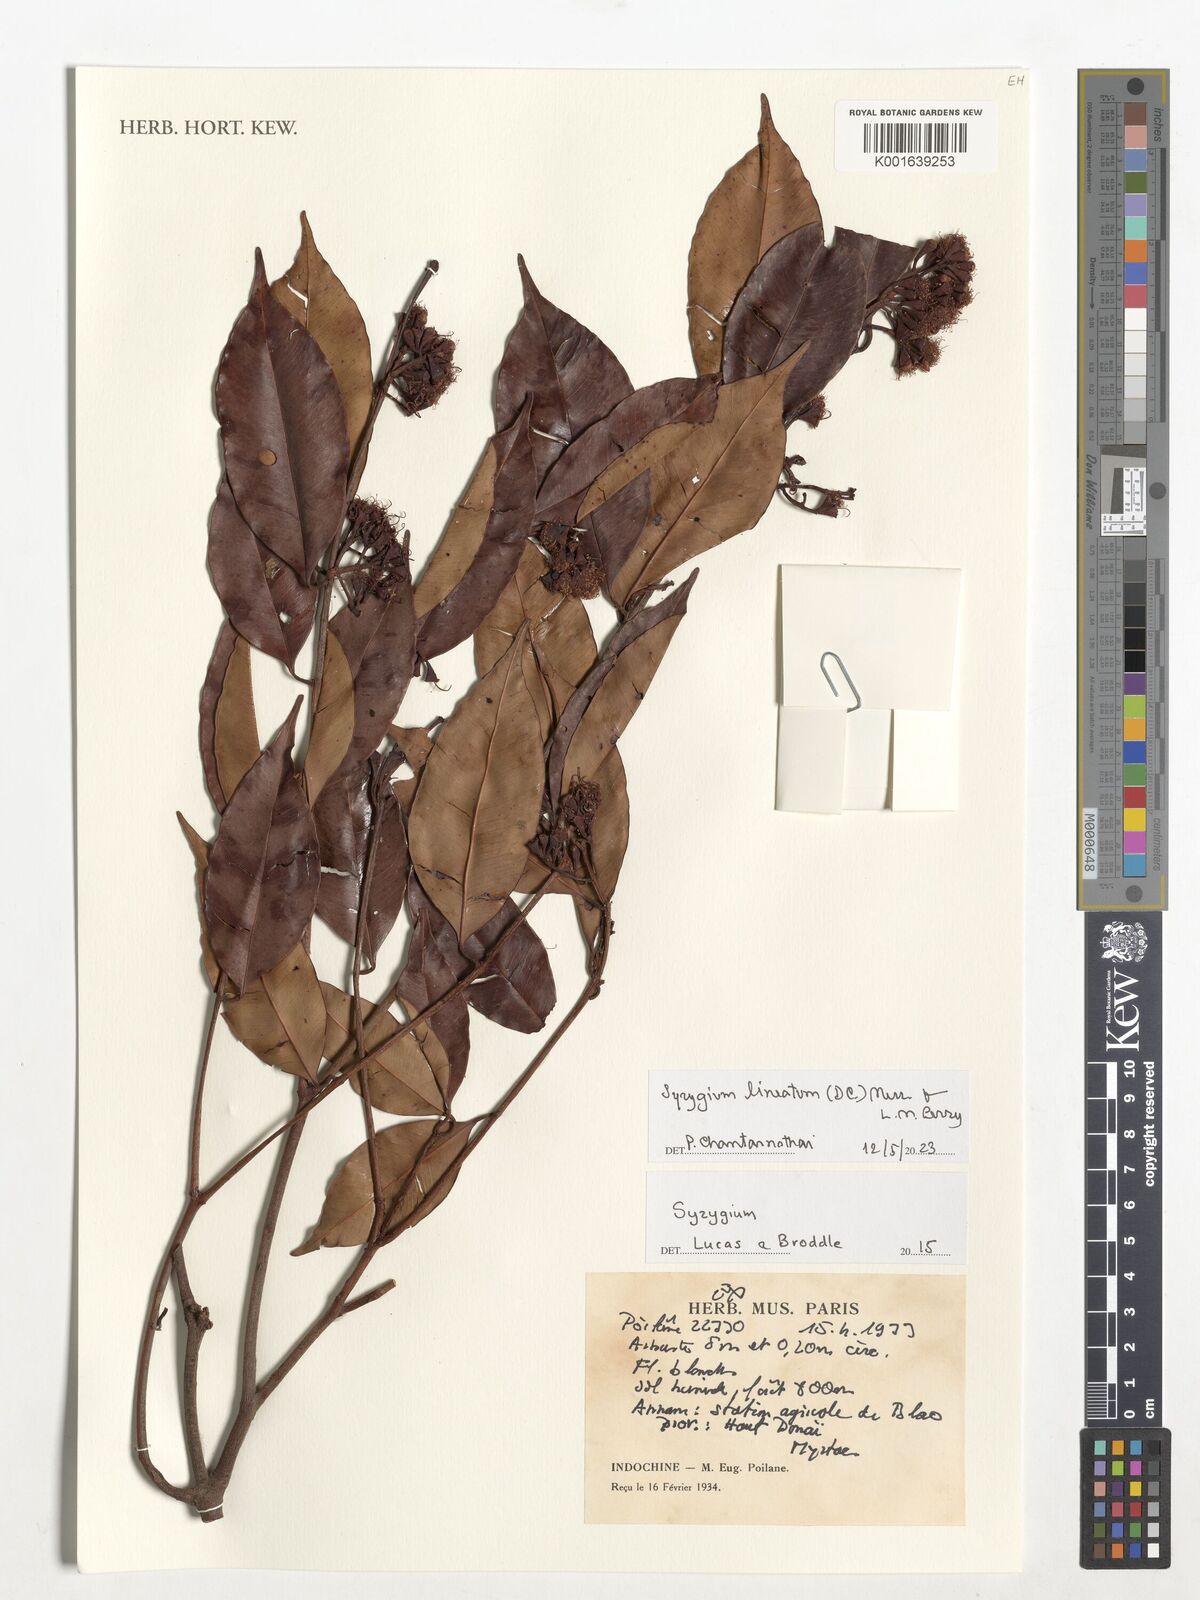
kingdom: Plantae
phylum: Tracheophyta
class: Magnoliopsida
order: Myrtales
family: Myrtaceae
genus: Syzygium
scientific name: Syzygium lineatum
